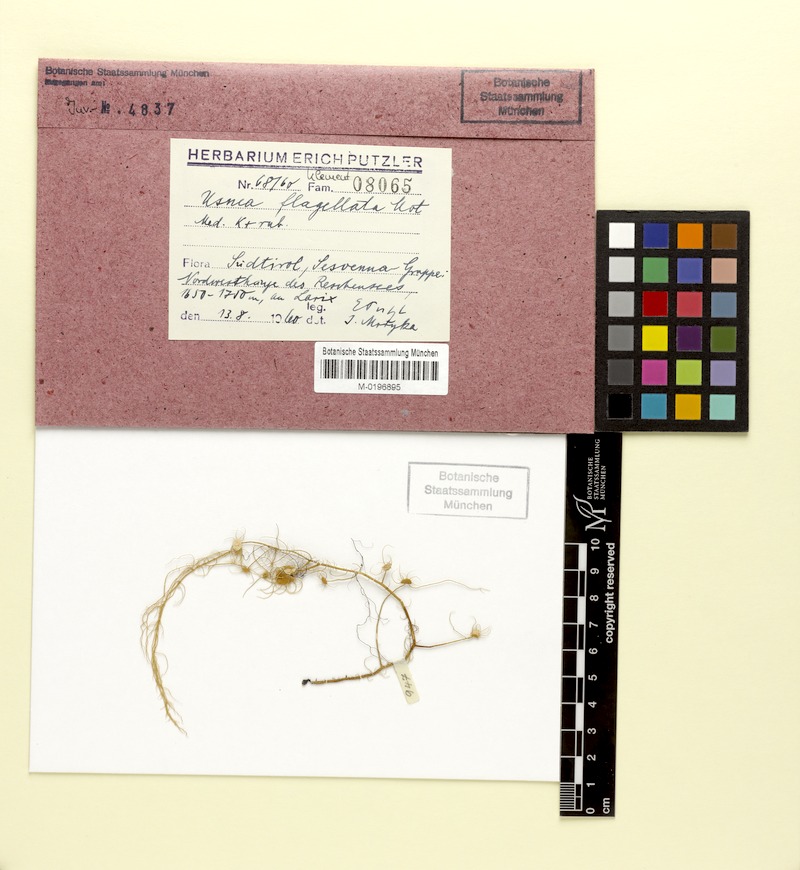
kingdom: Fungi
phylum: Ascomycota
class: Lecanoromycetes
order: Lecanorales
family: Parmeliaceae
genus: Usnea
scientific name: Usnea dasopoga
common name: Fishbone beard lichen
